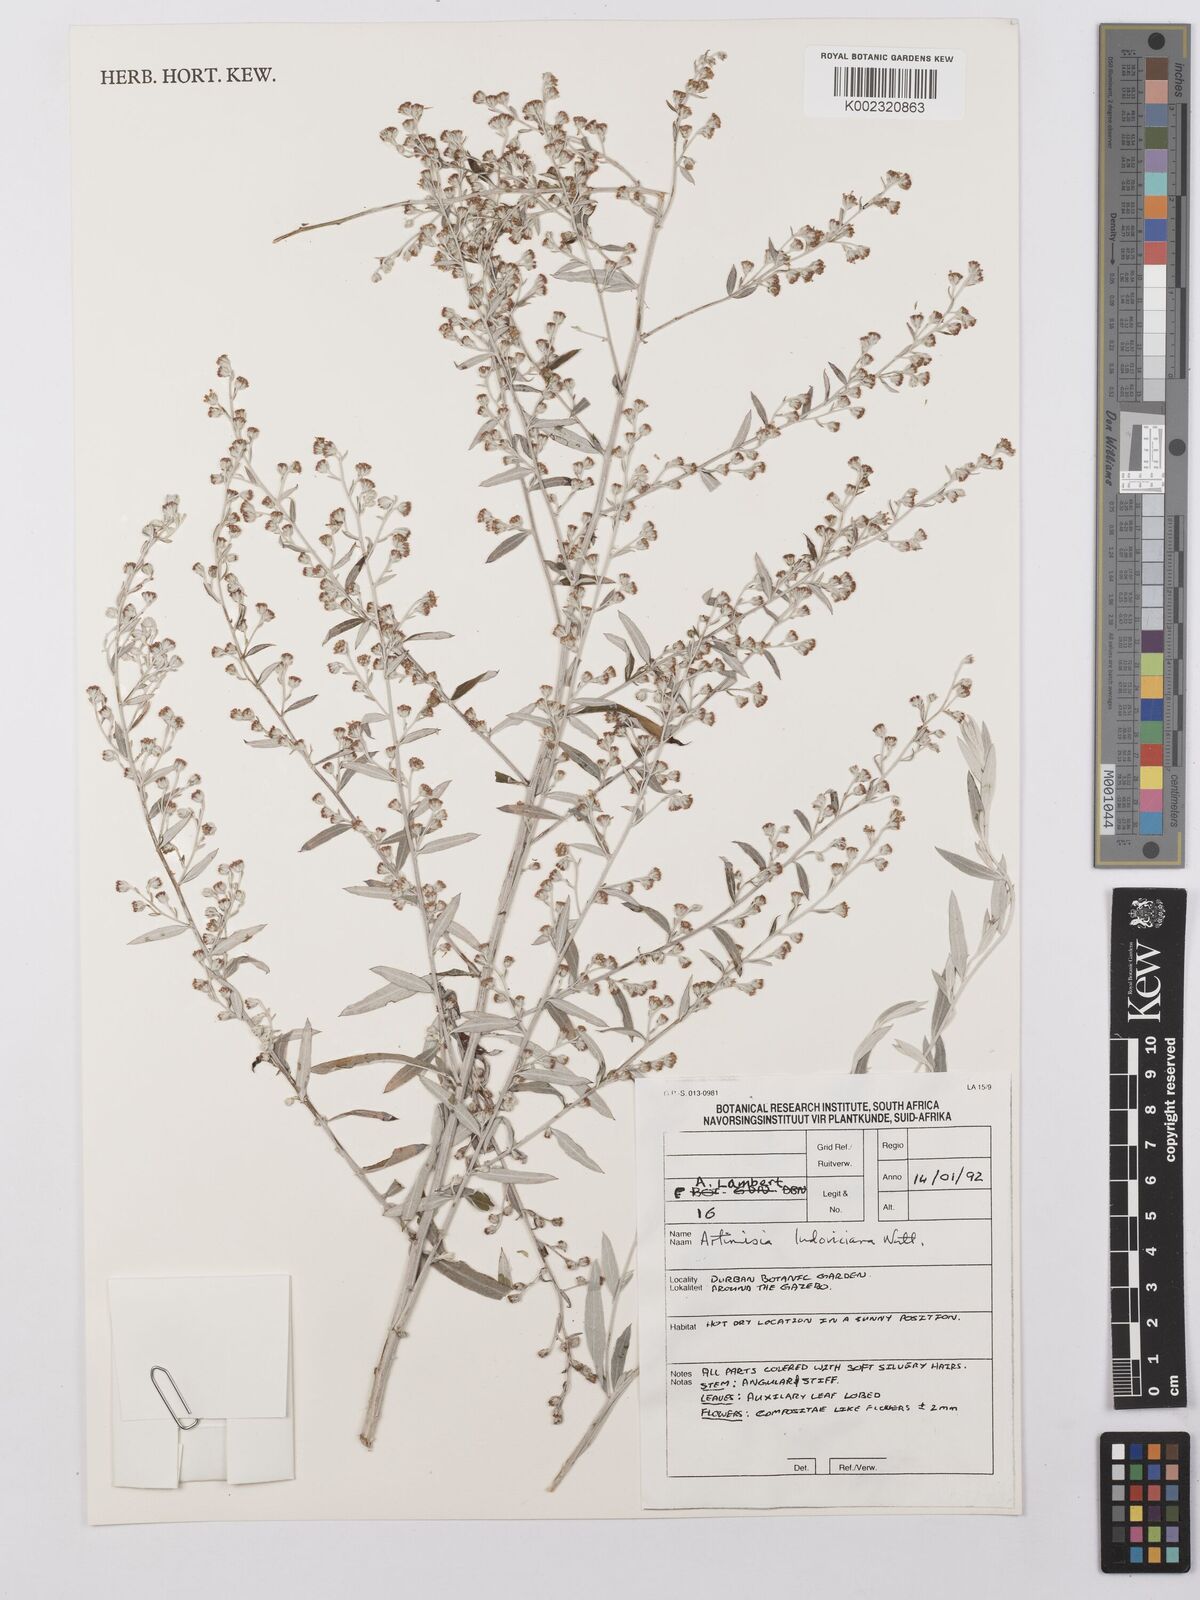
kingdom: Plantae
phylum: Tracheophyta
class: Magnoliopsida
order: Asterales
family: Asteraceae
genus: Artemisia
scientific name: Artemisia ludoviciana
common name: Western mugwort
